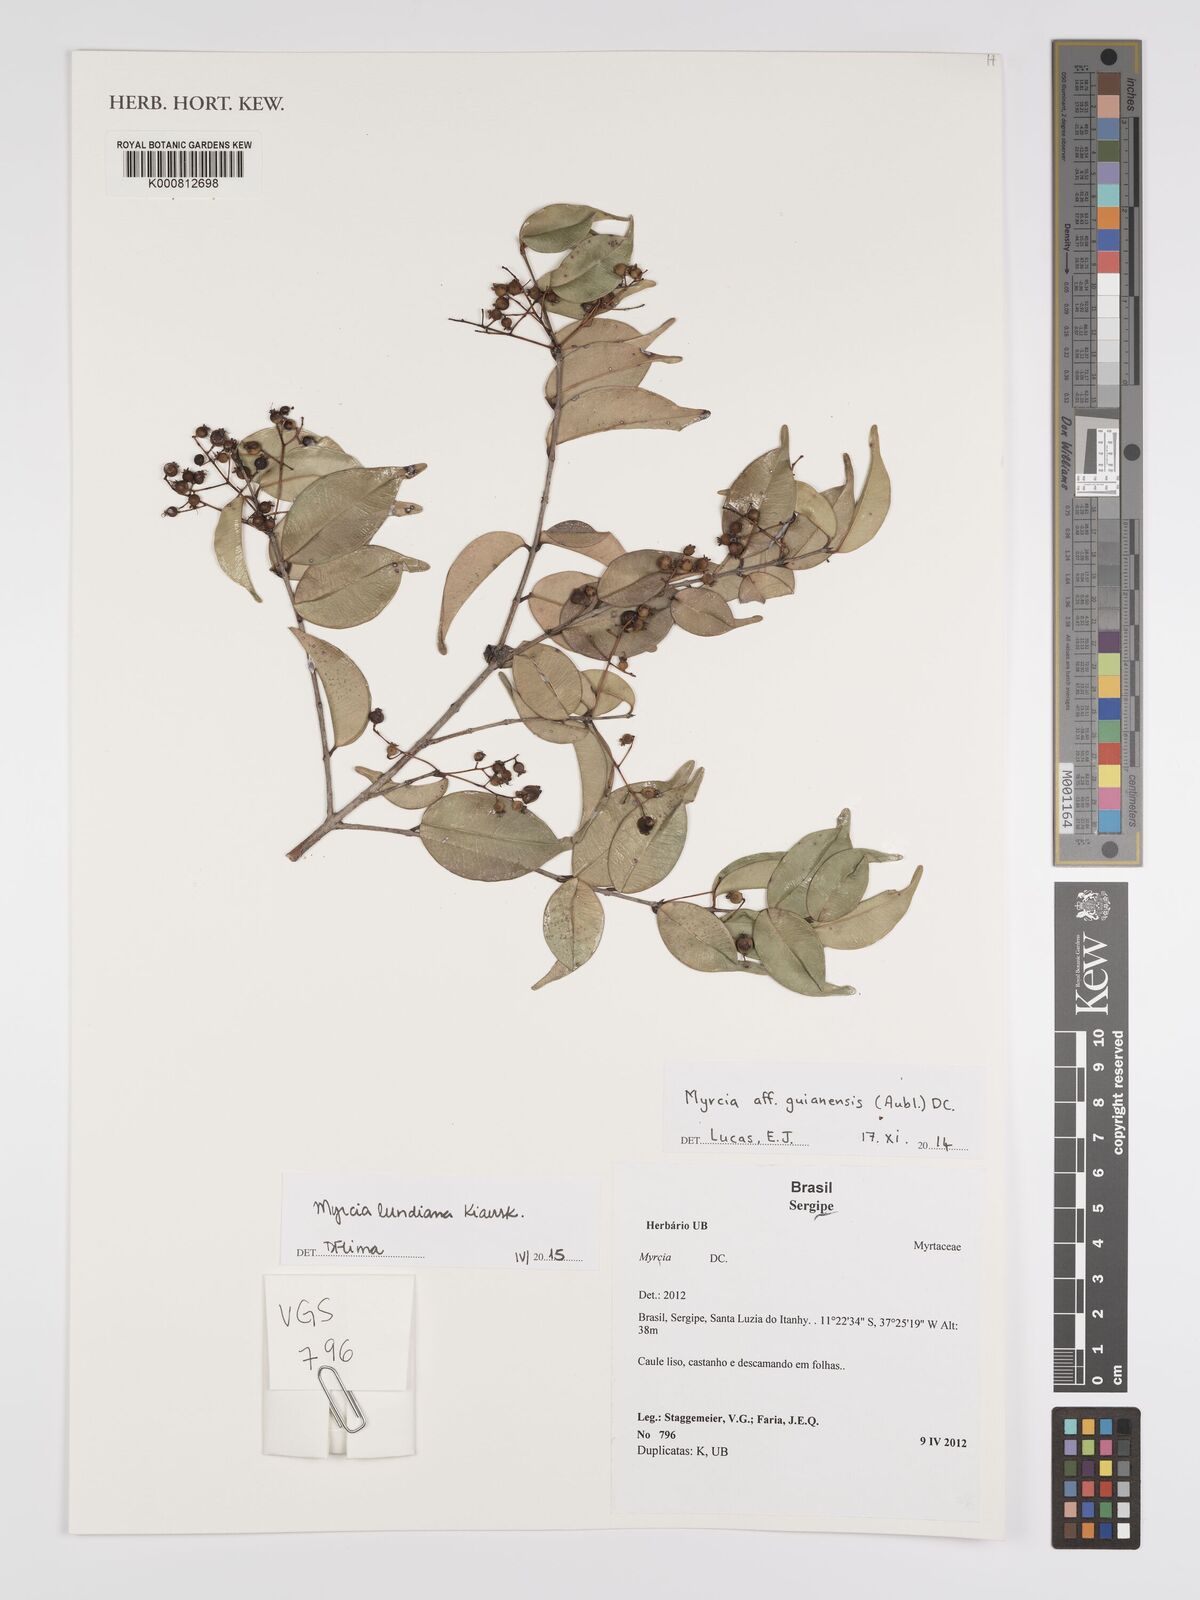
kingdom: Plantae
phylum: Tracheophyta
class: Magnoliopsida
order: Myrtales
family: Myrtaceae
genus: Myrcia
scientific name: Myrcia amazonica
